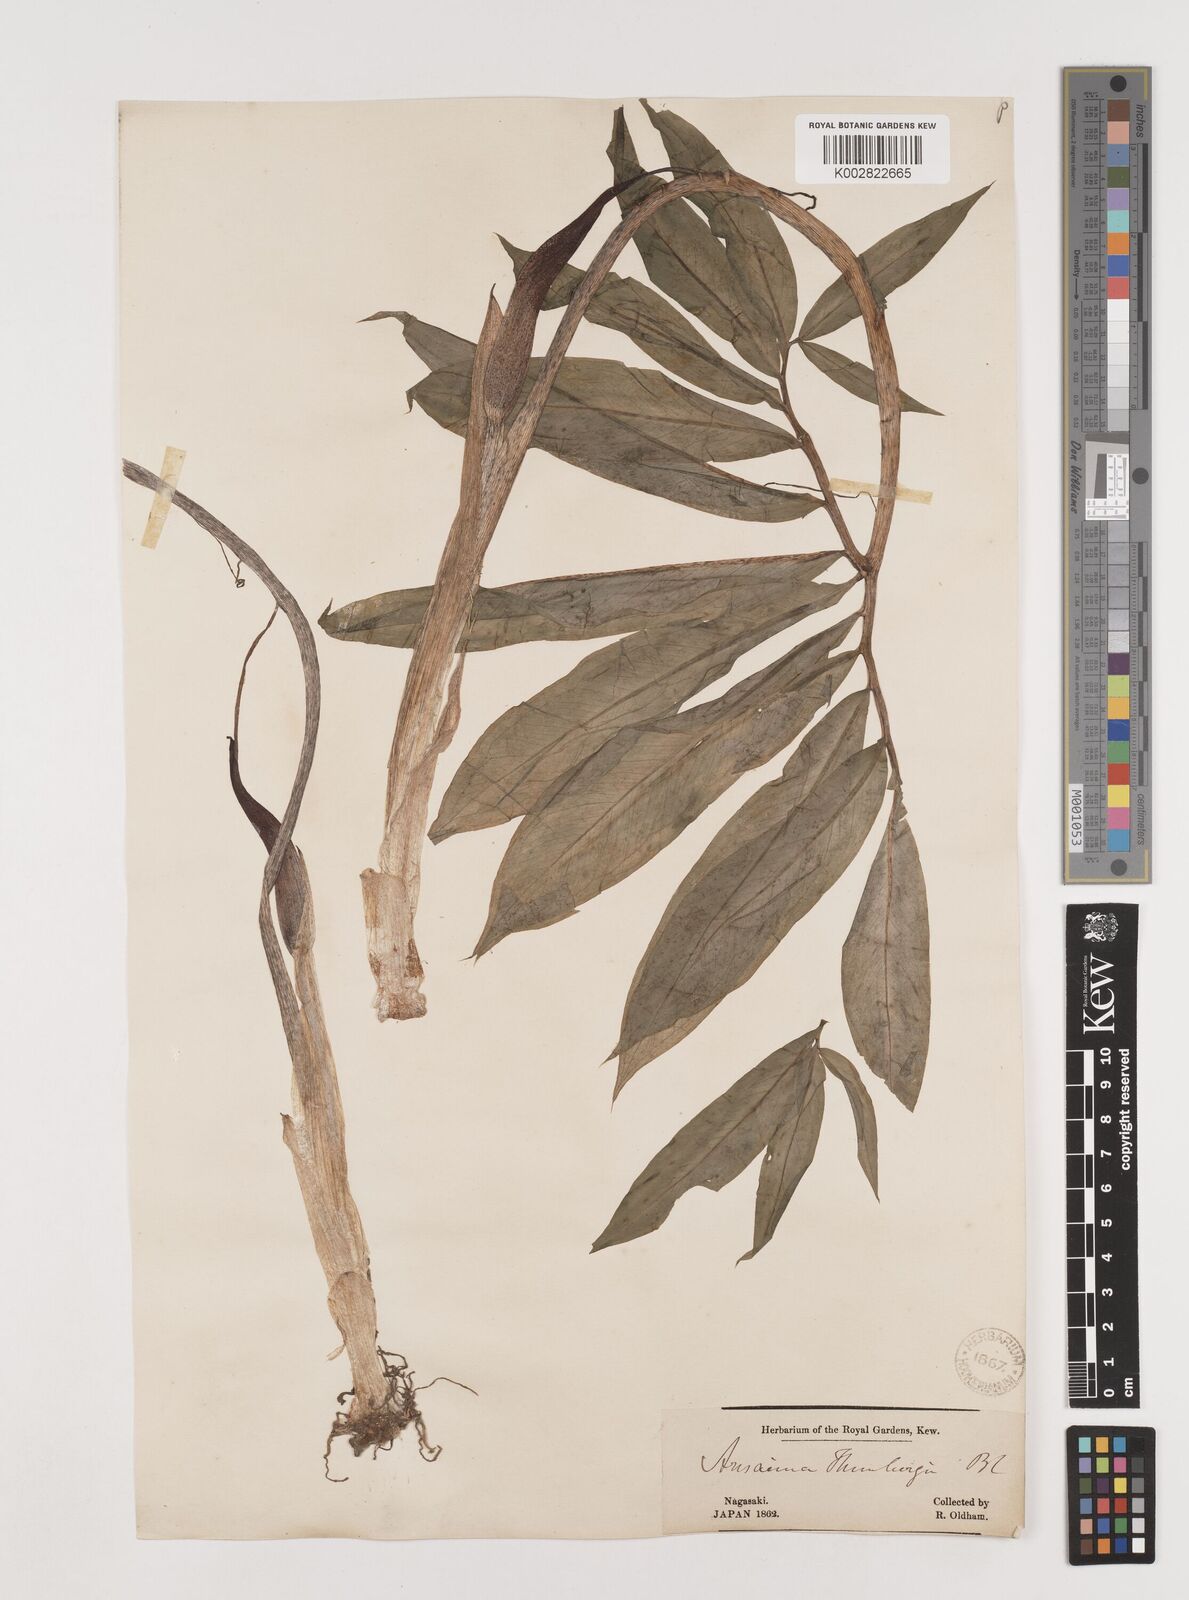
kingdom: Plantae
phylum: Tracheophyta
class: Liliopsida
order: Alismatales
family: Araceae
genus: Arisaema
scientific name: Arisaema thunbergii
